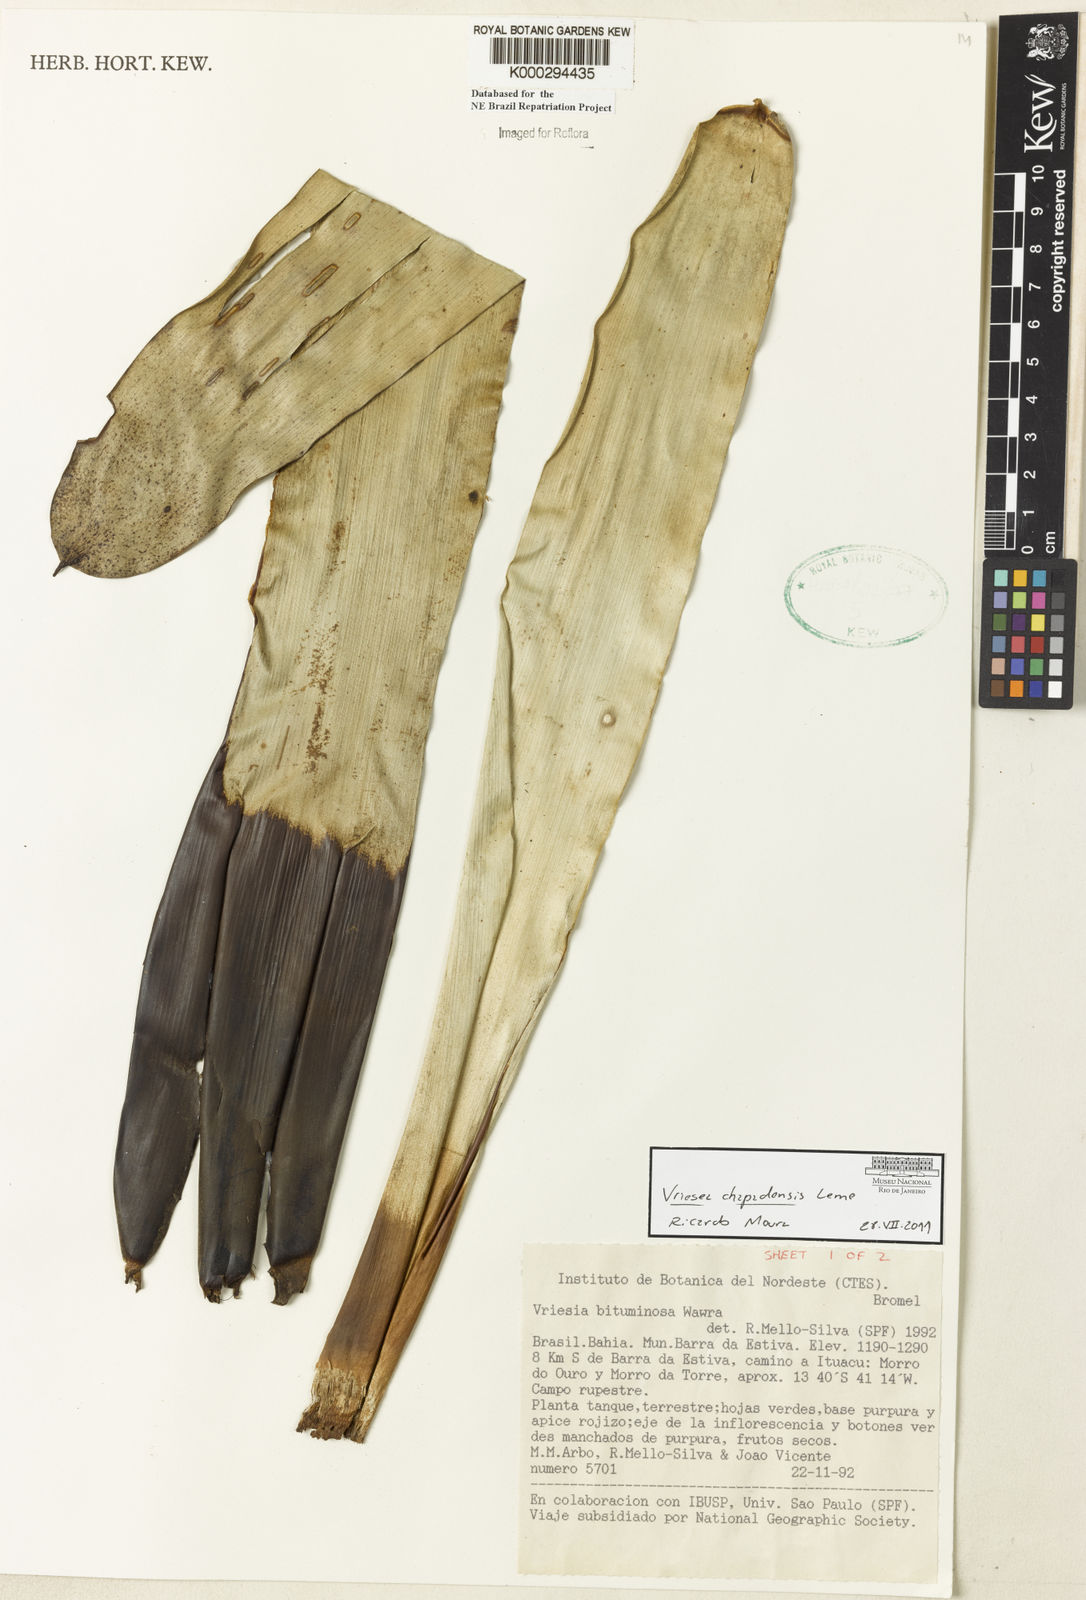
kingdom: Plantae
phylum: Tracheophyta
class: Liliopsida
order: Poales
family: Bromeliaceae
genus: Vriesea
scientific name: Vriesea bituminosa
